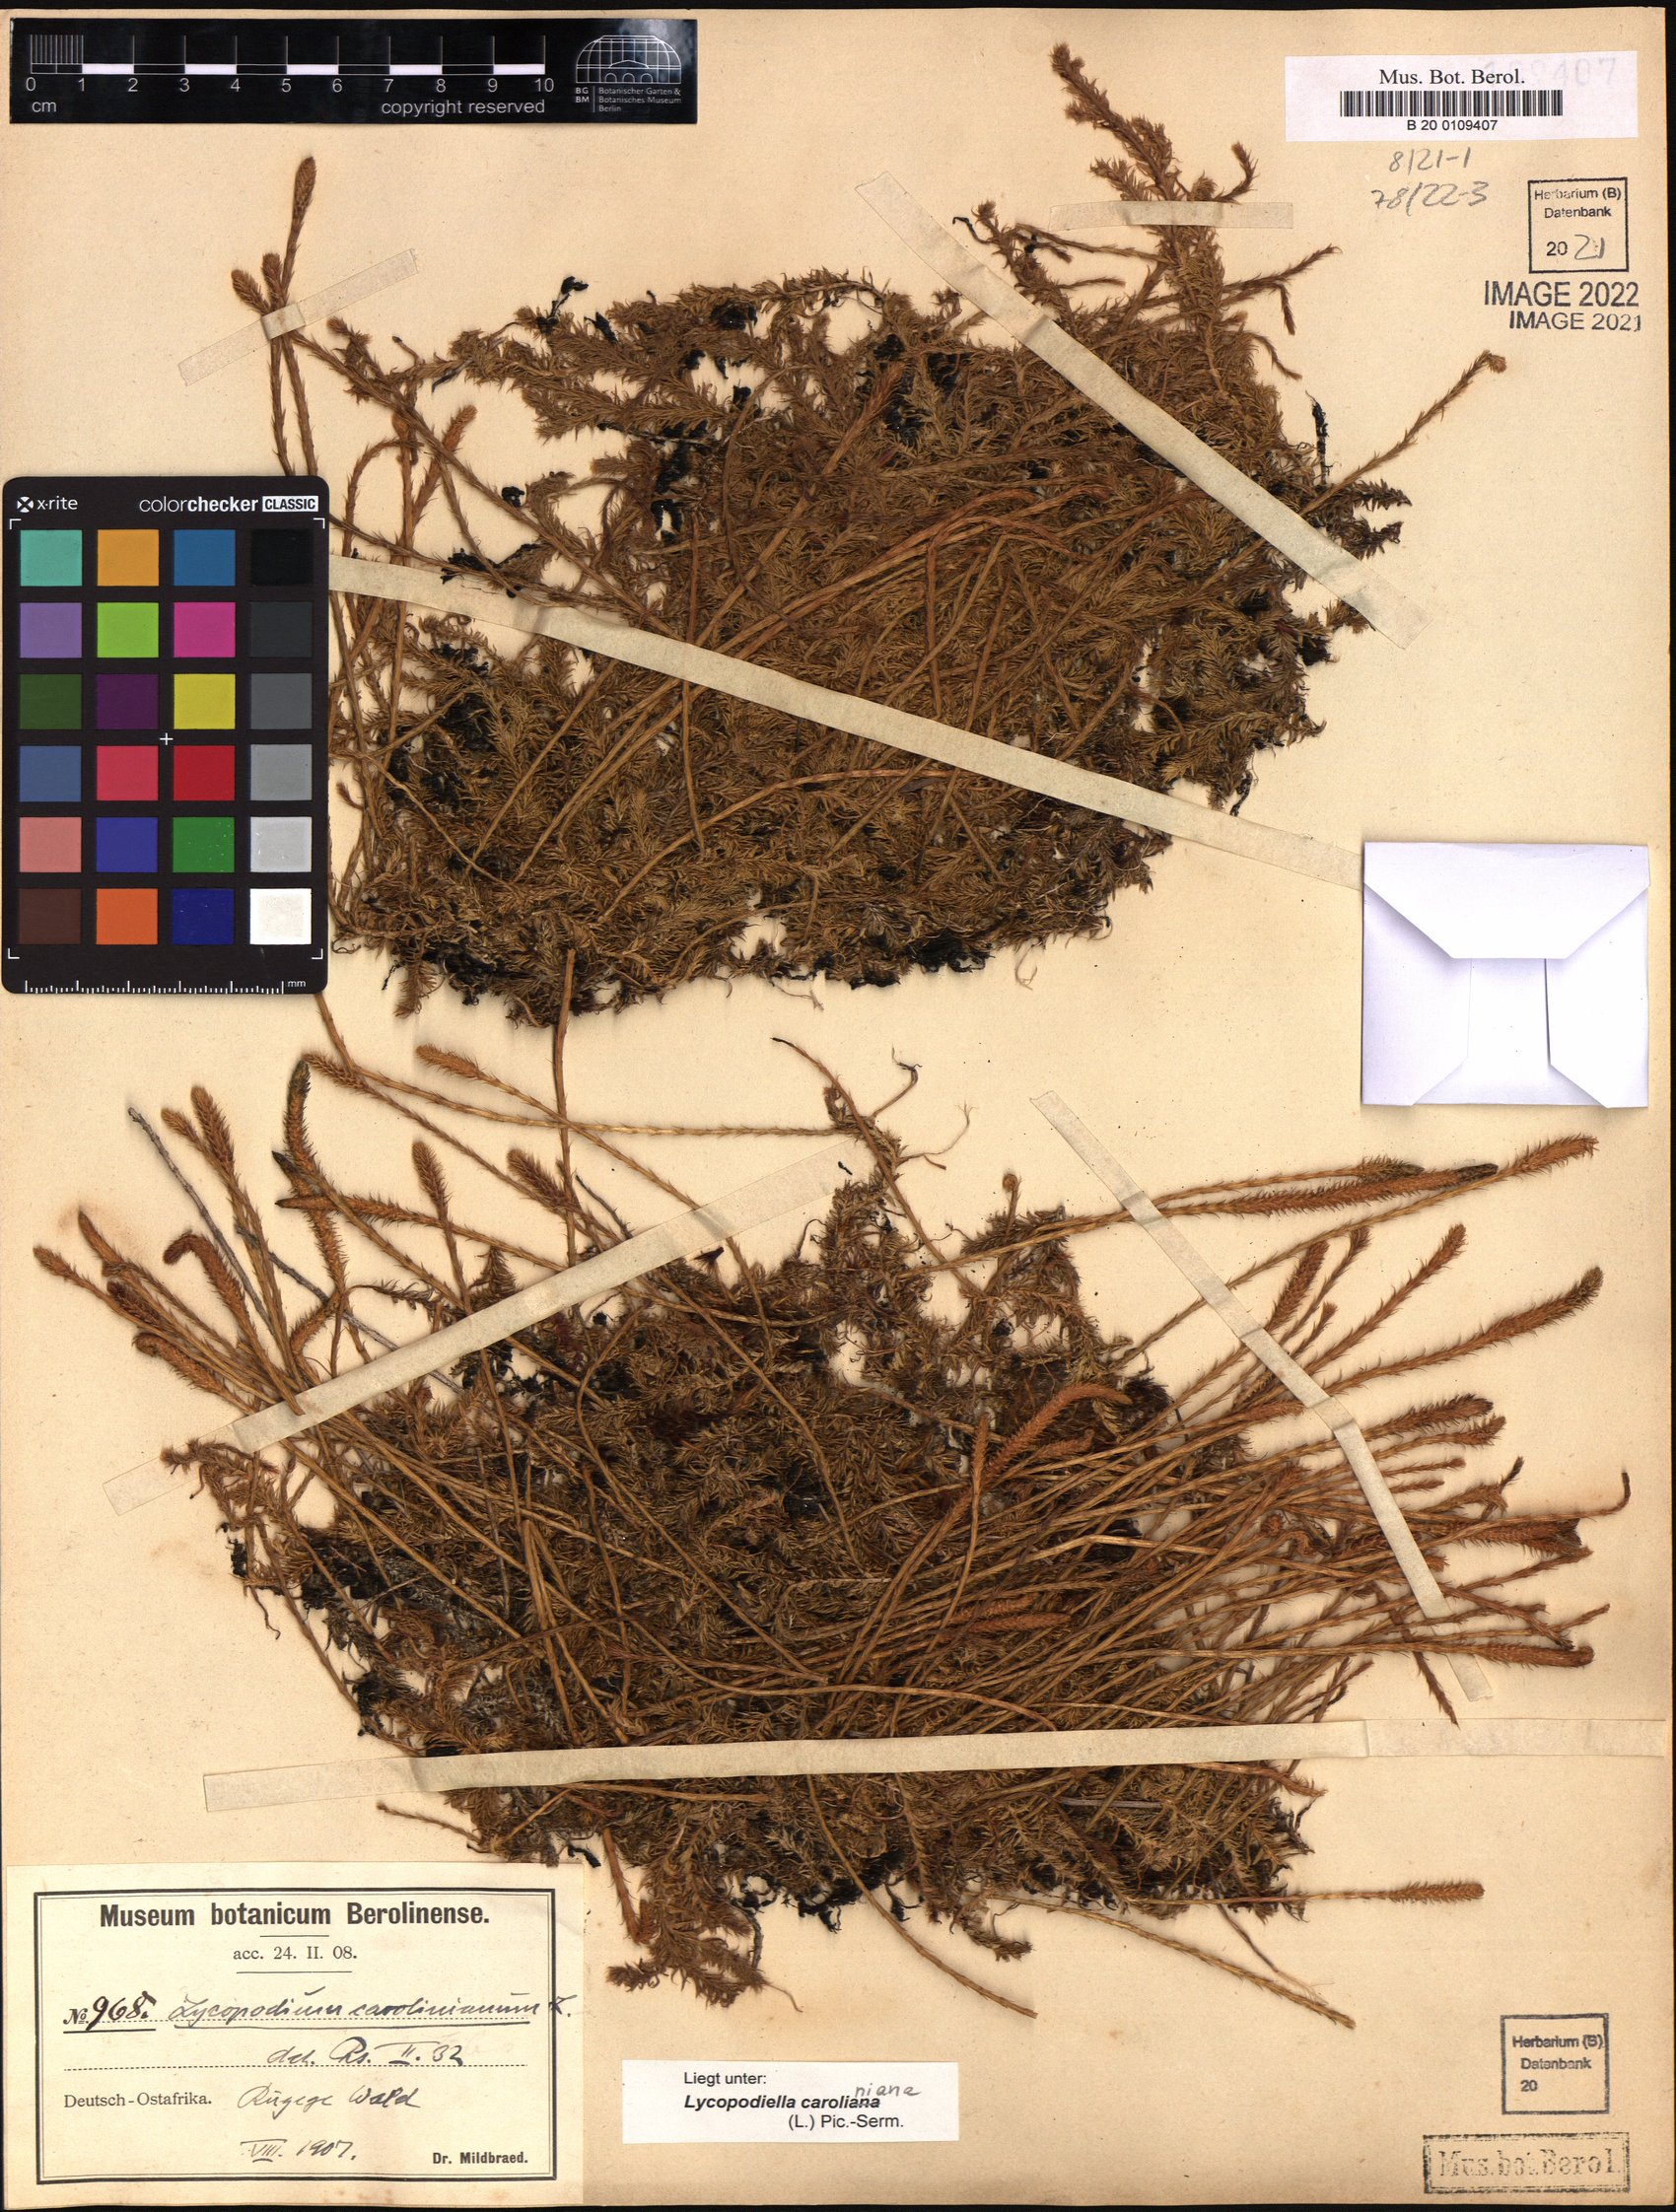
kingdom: Plantae
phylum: Tracheophyta
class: Lycopodiopsida
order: Lycopodiales
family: Lycopodiaceae
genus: Pseudolycopodiella
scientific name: Pseudolycopodiella caroliniana
